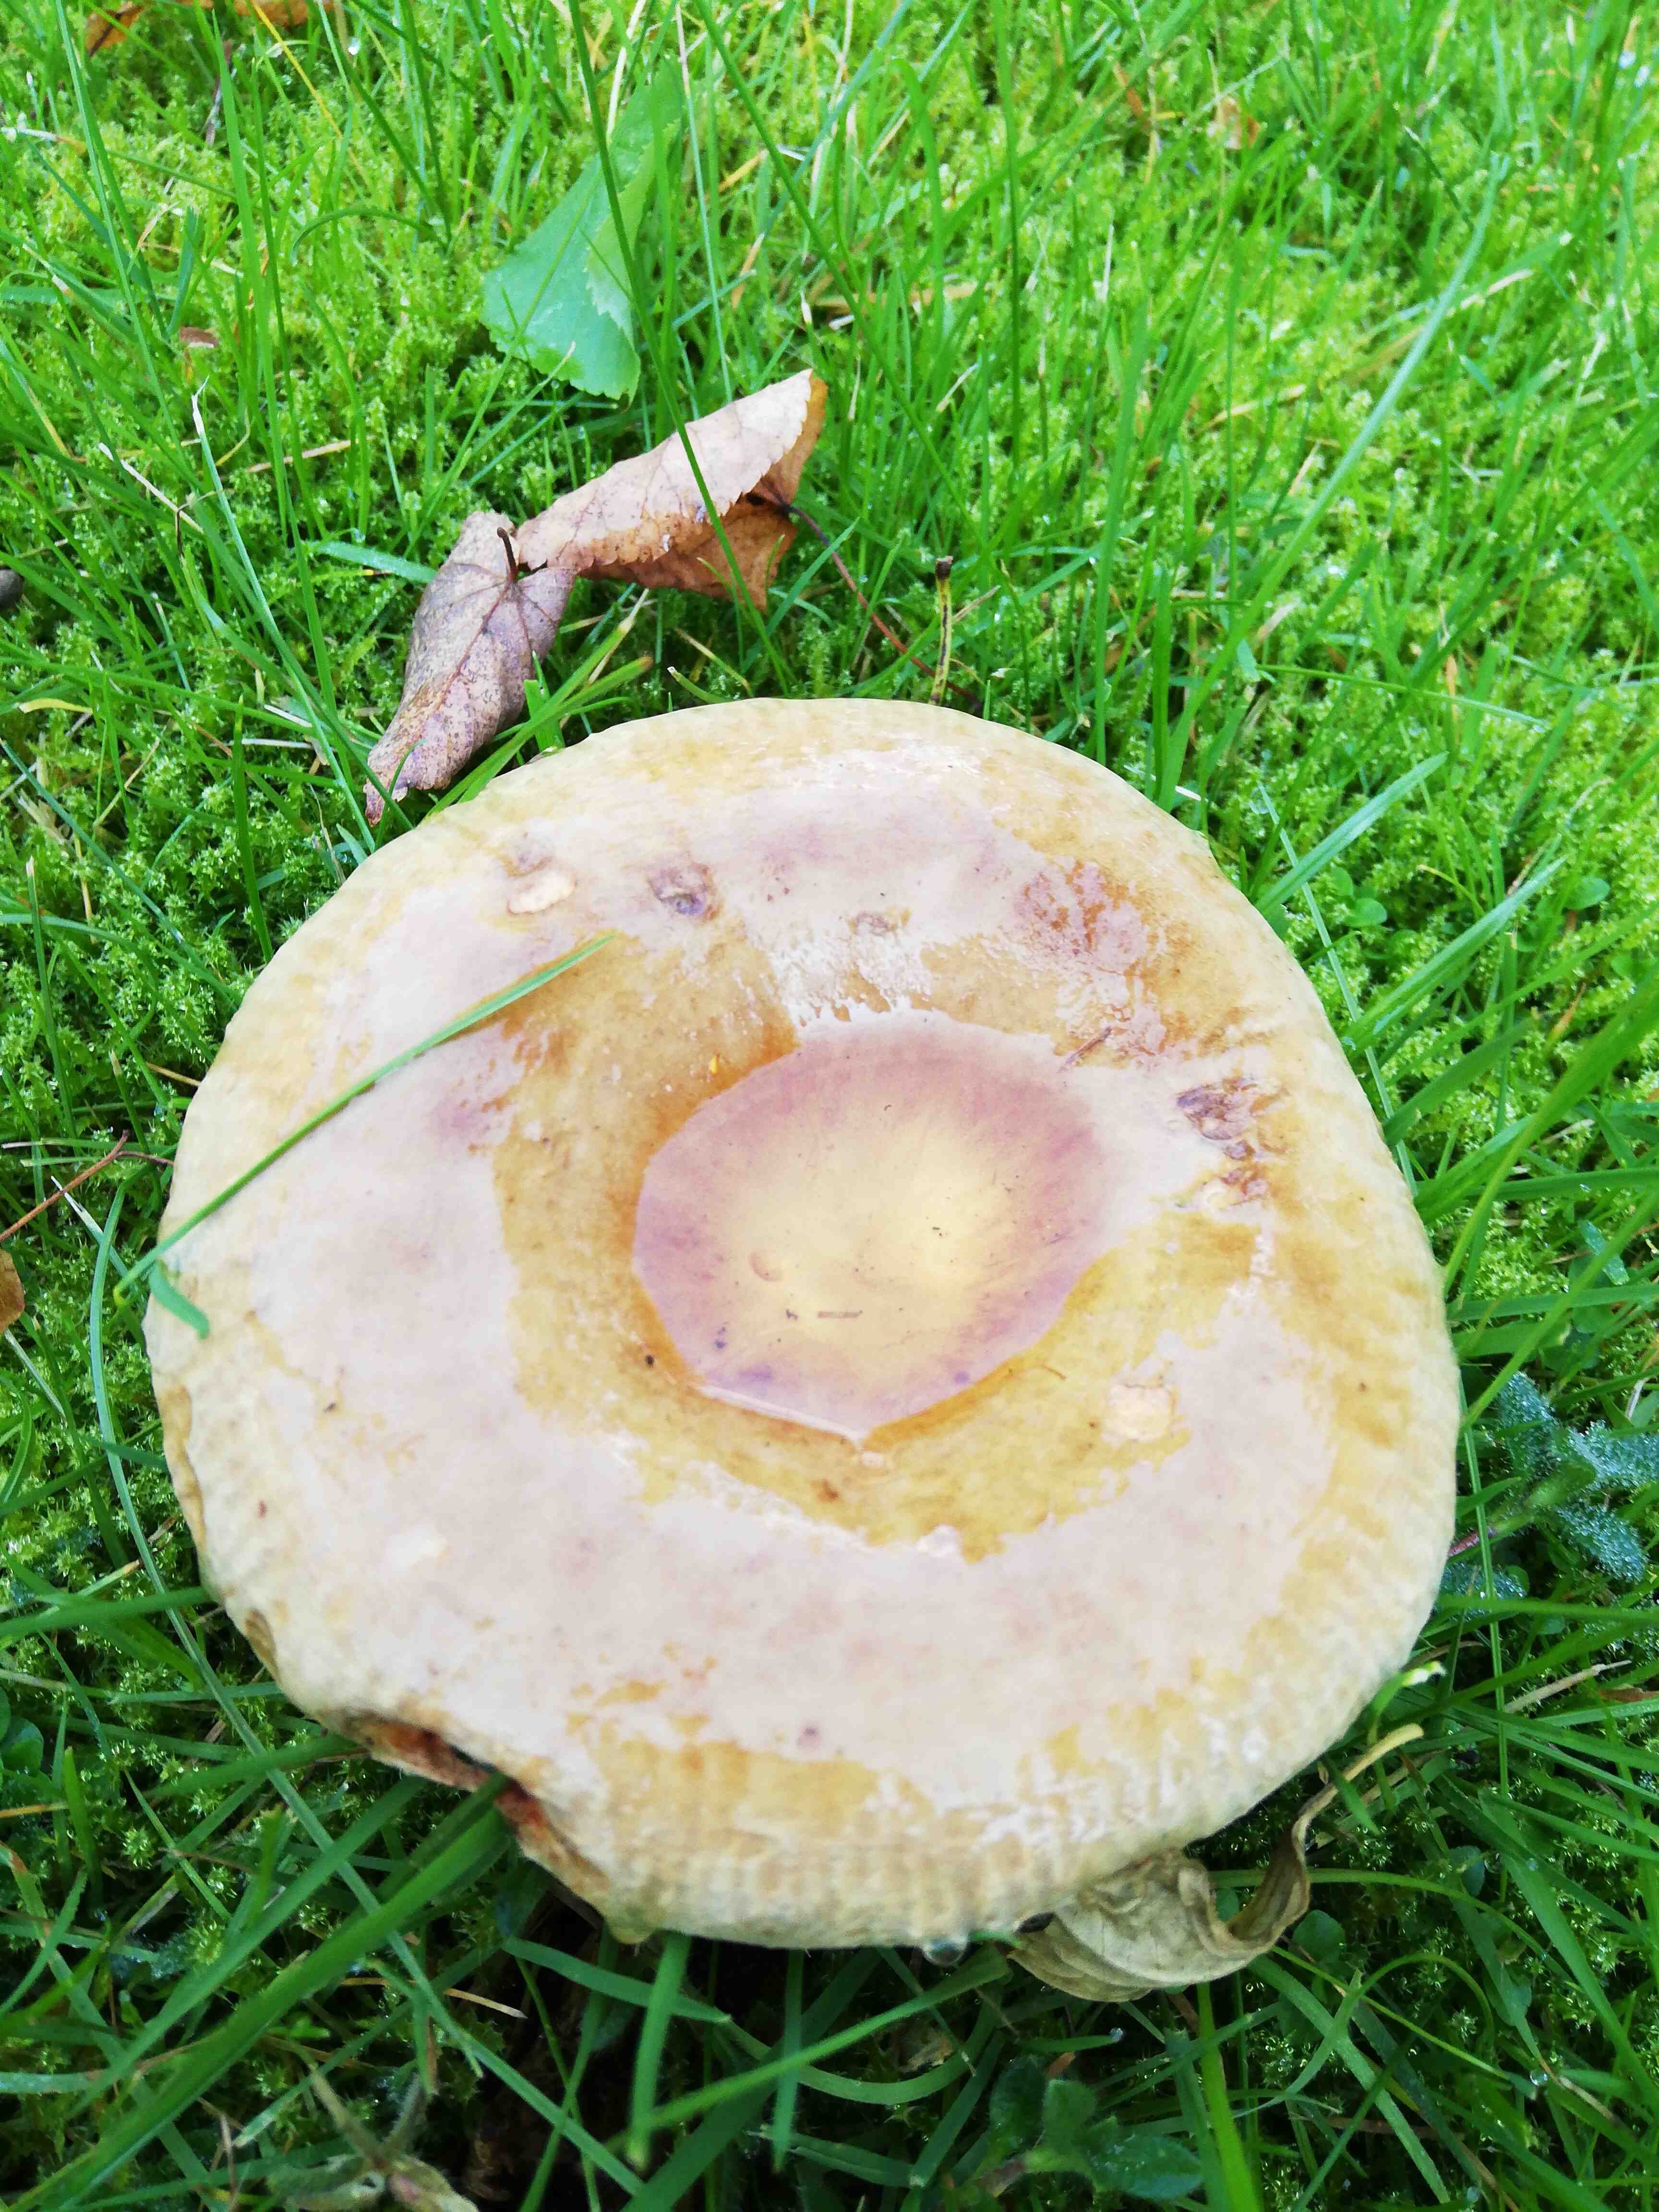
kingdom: Fungi
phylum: Basidiomycota
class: Agaricomycetes
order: Boletales
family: Paxillaceae
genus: Paxillus
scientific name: Paxillus
